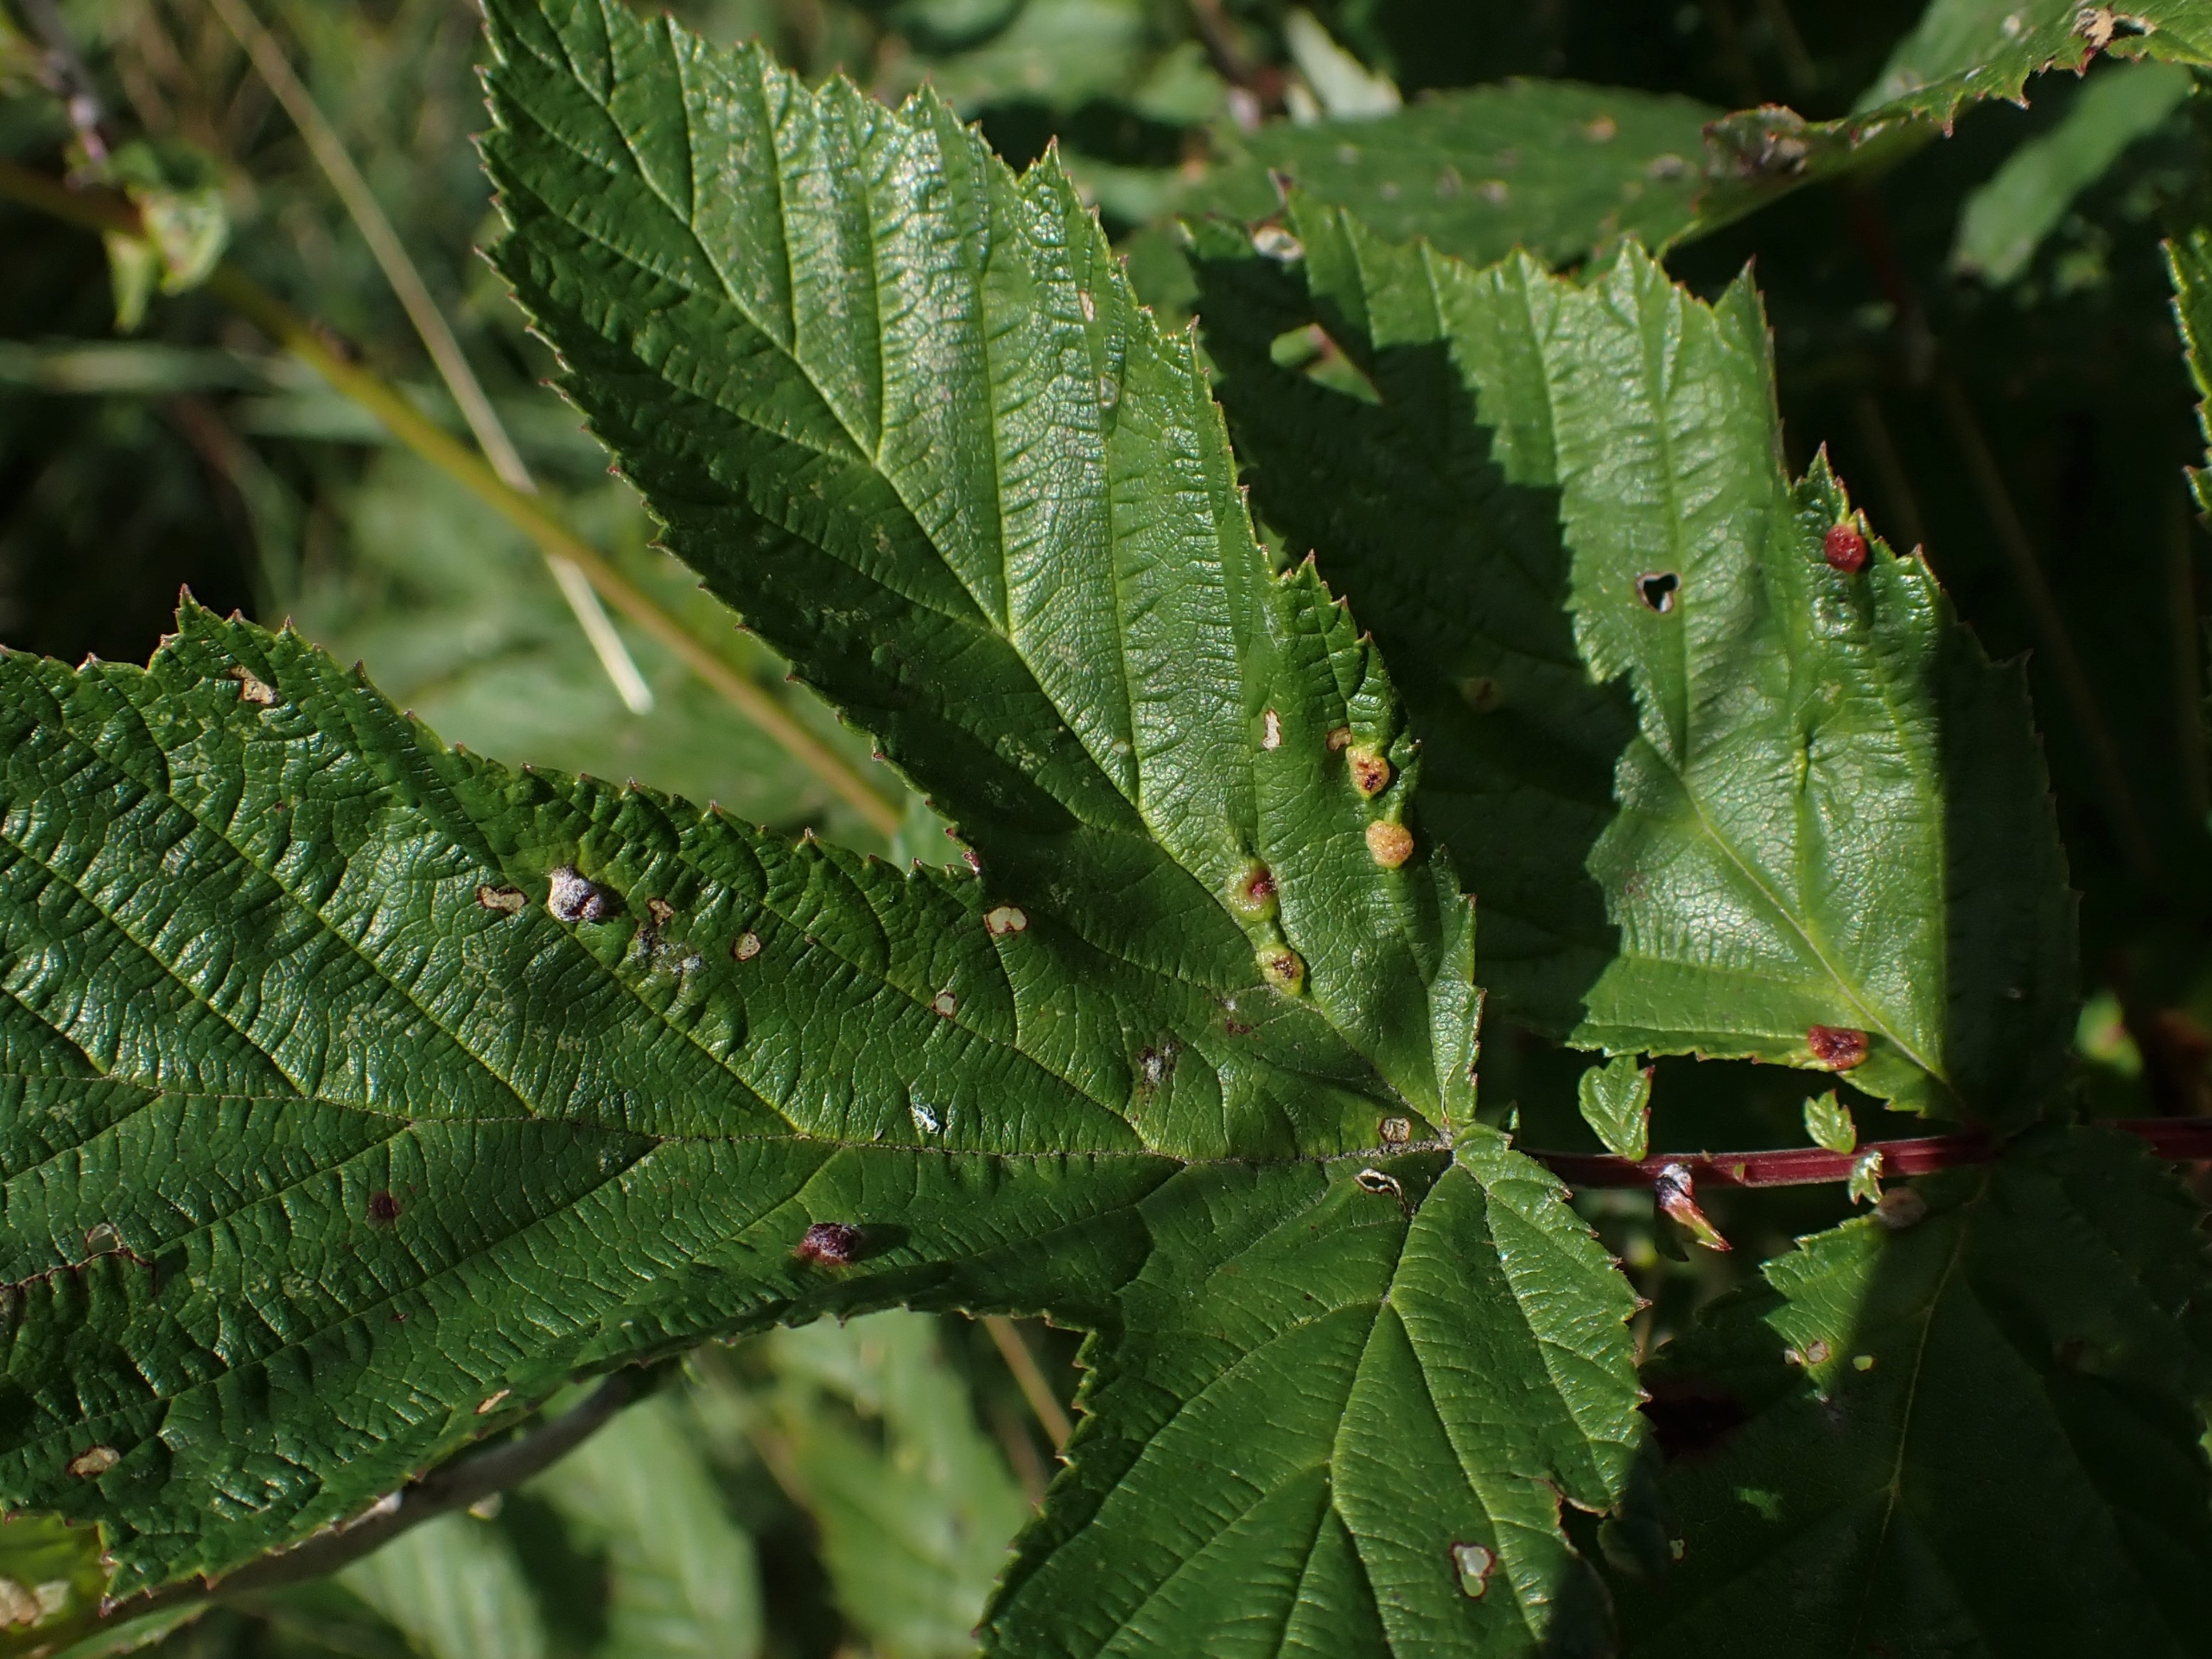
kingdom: Animalia
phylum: Arthropoda
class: Insecta
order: Diptera
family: Cecidomyiidae
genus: Dasineura
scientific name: Dasineura ulmaria
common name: Mjødurtgalmyg
